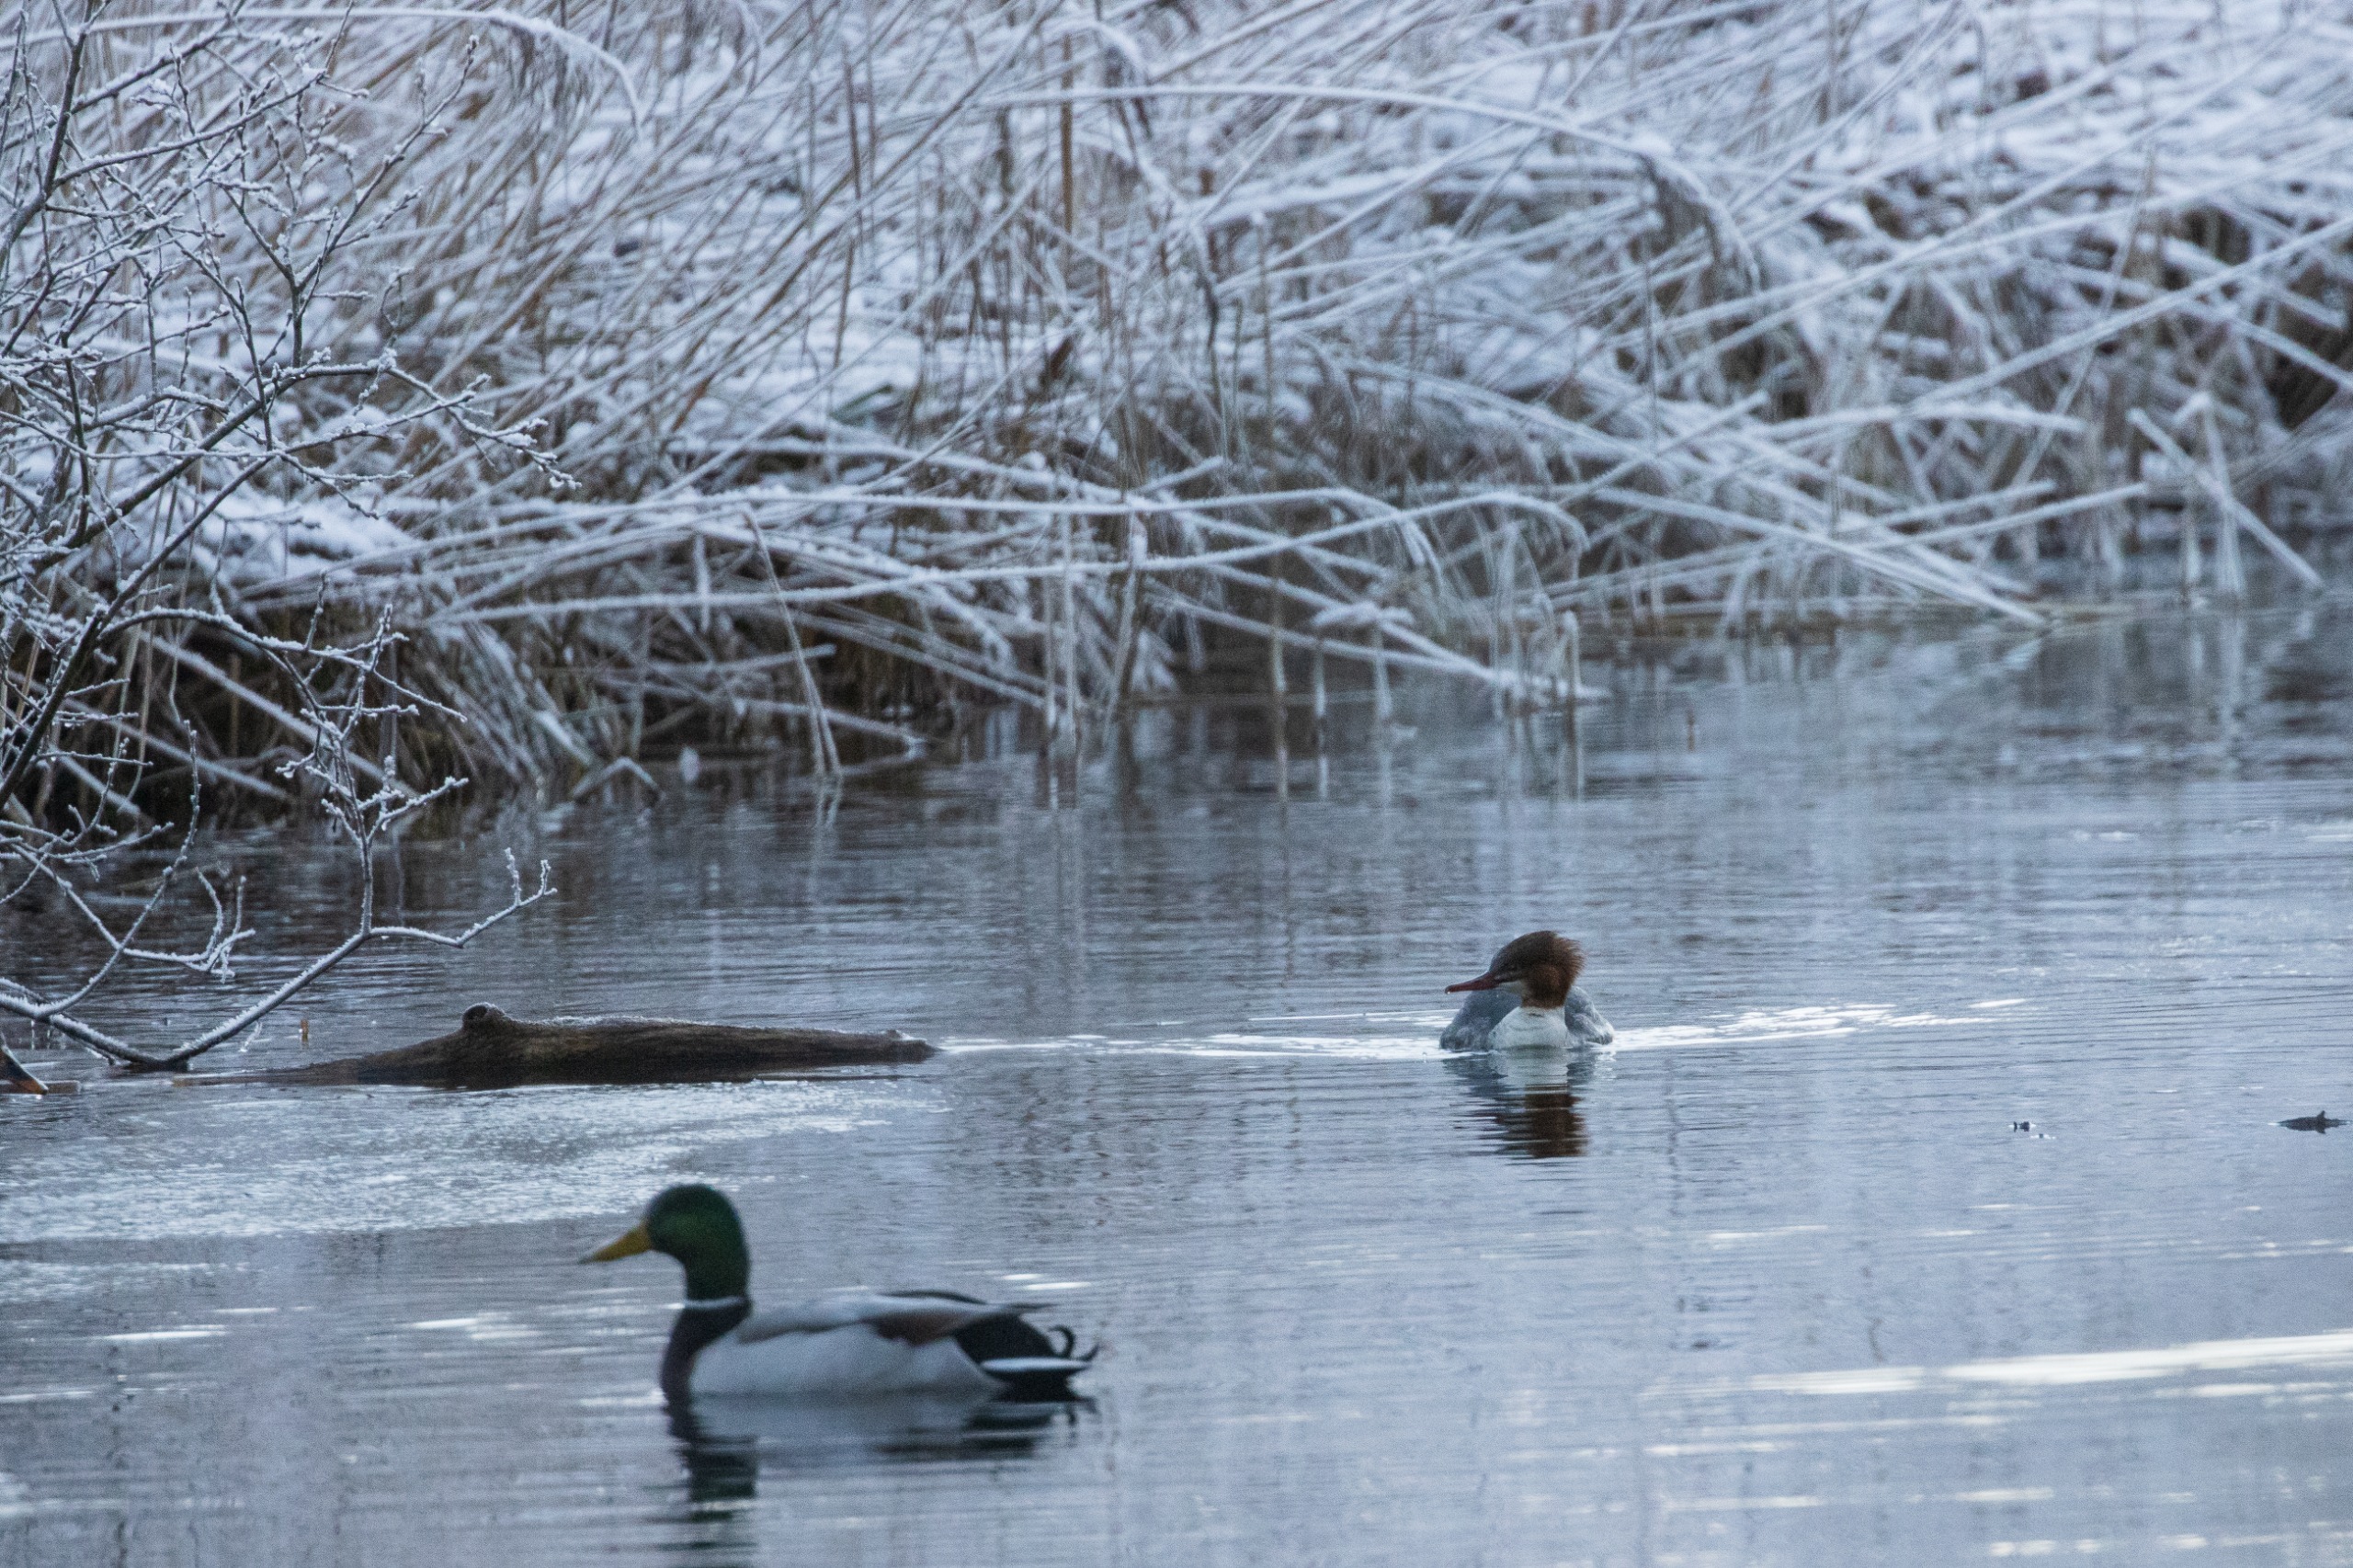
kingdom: Animalia
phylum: Chordata
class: Aves
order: Anseriformes
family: Anatidae
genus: Mergus
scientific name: Mergus merganser
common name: Stor skallesluger
